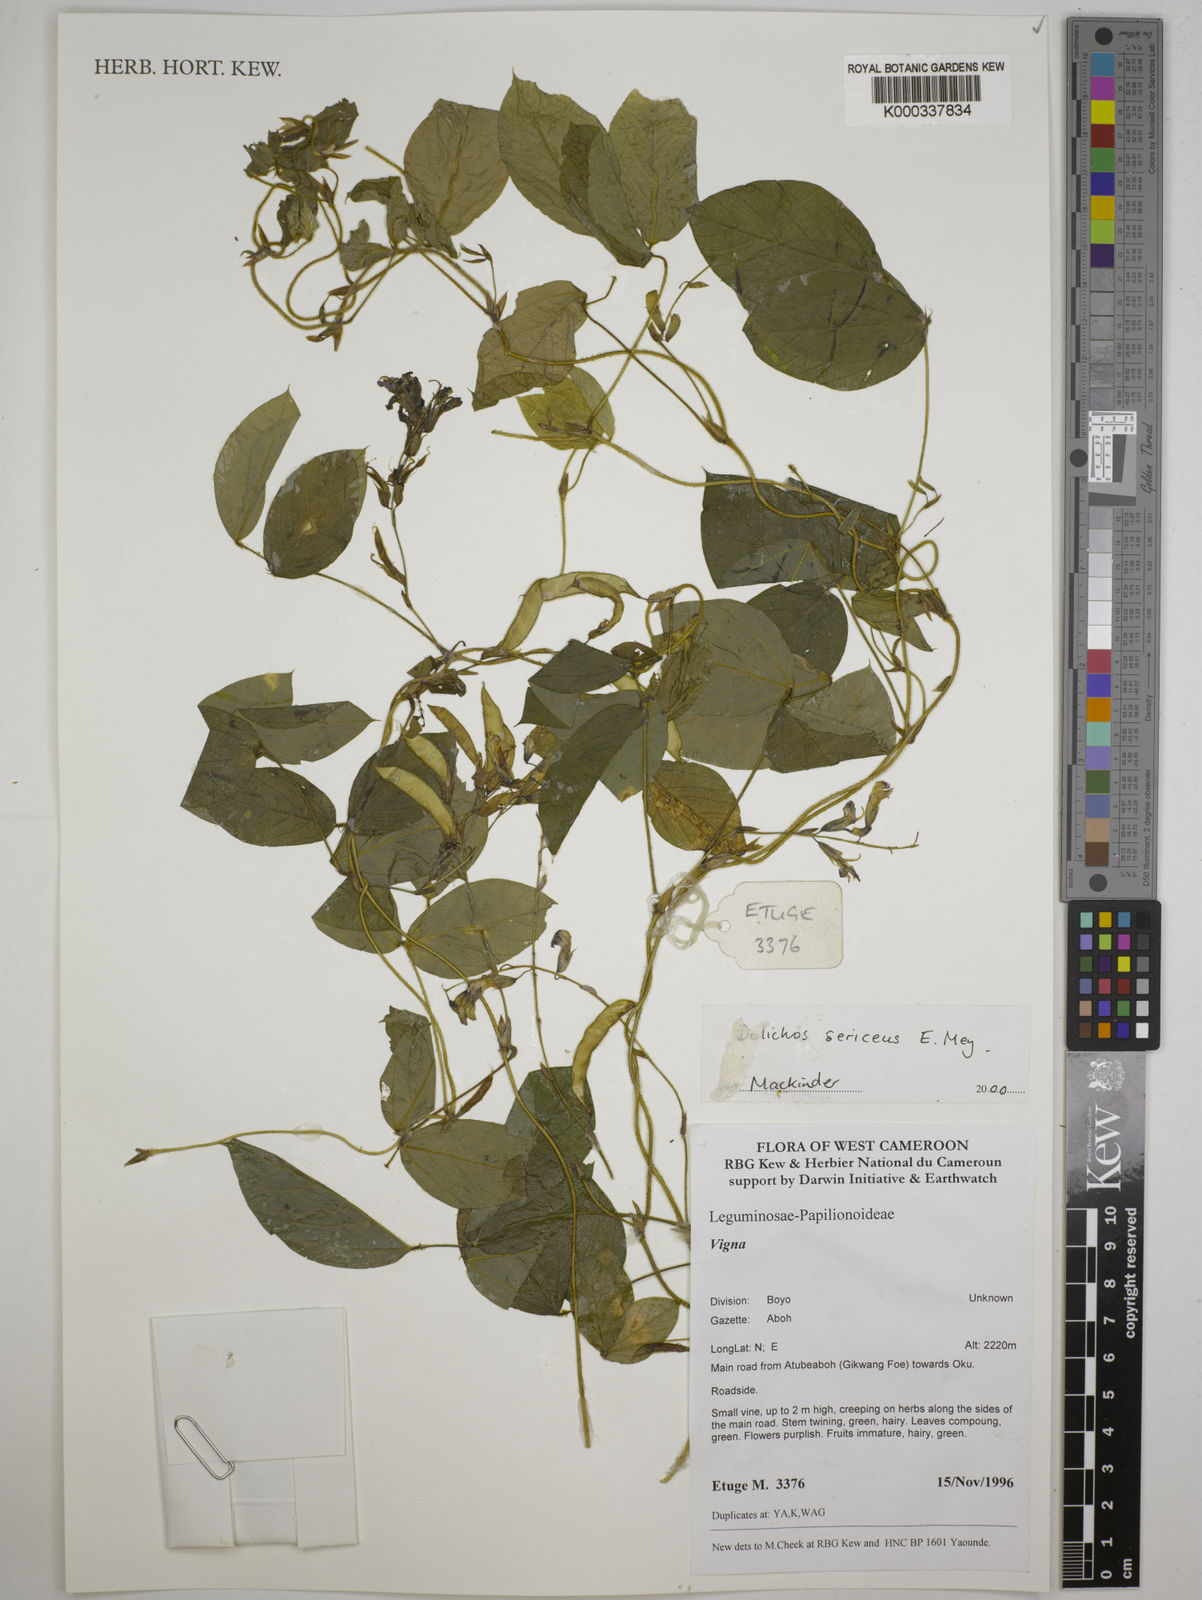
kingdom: Plantae
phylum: Tracheophyta
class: Magnoliopsida
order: Fabales
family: Fabaceae
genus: Dolichos
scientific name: Dolichos sericeus
